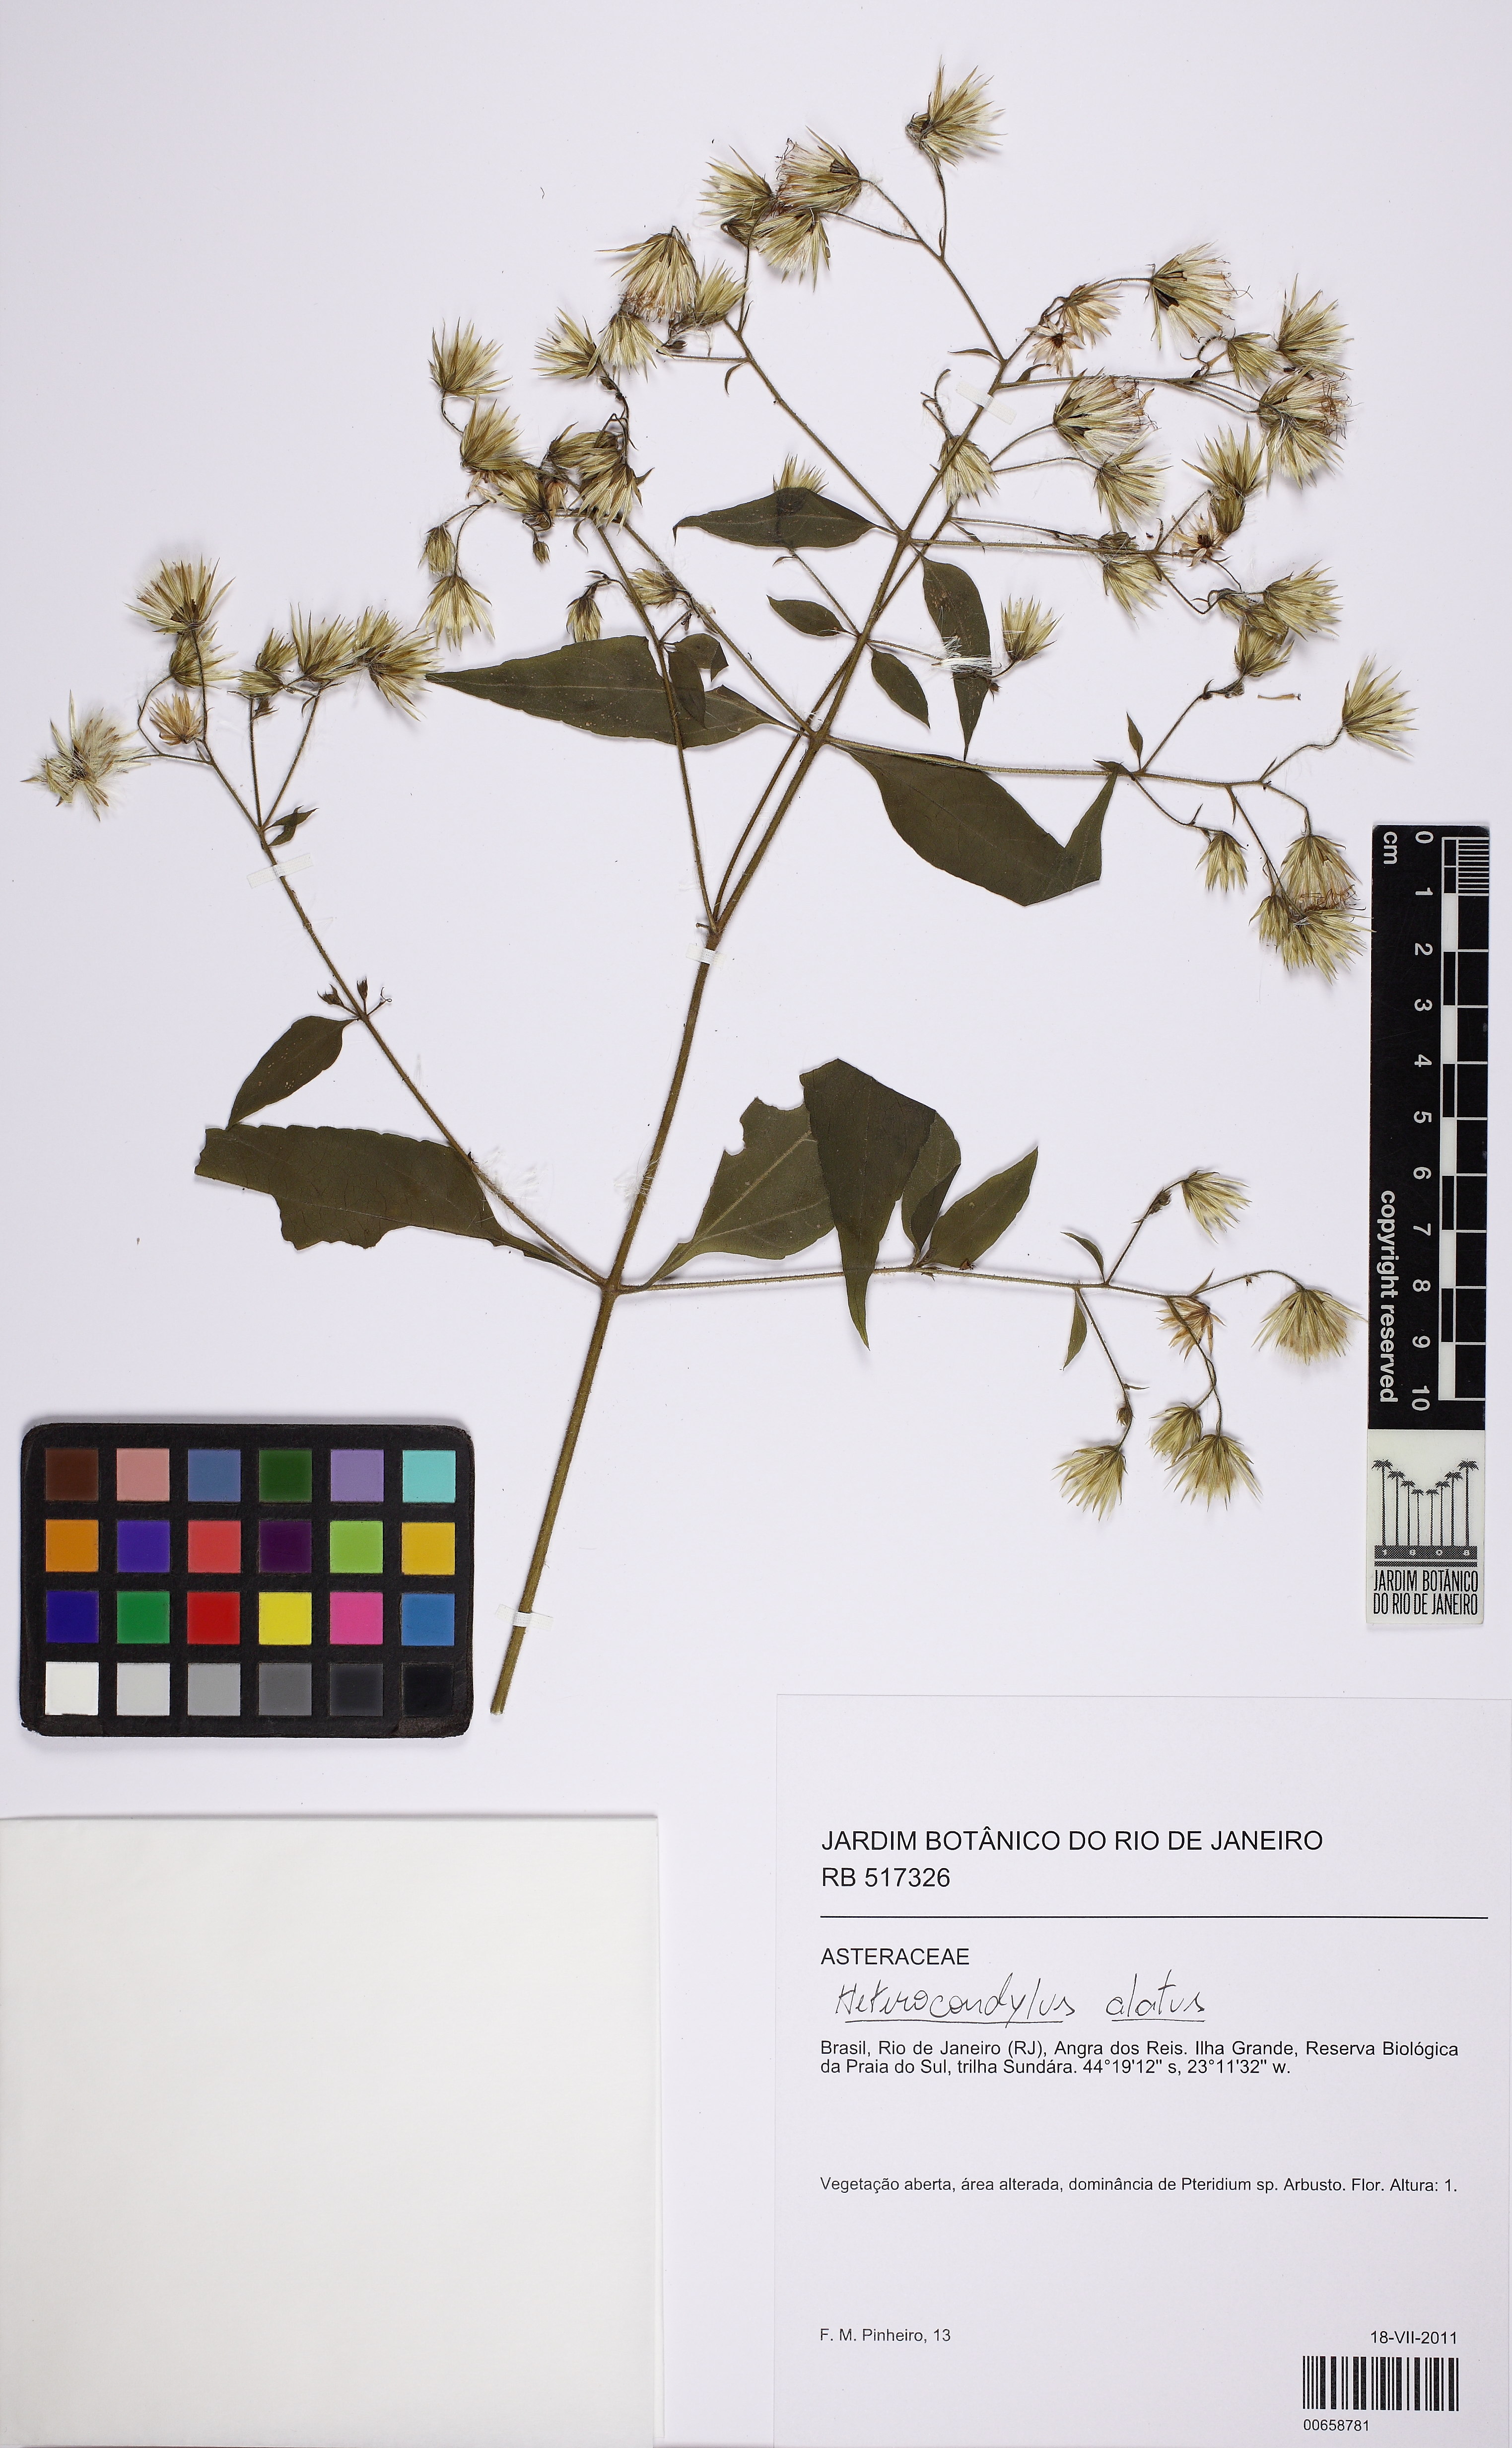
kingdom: Plantae
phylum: Tracheophyta
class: Magnoliopsida
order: Asterales
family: Asteraceae
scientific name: Asteraceae
